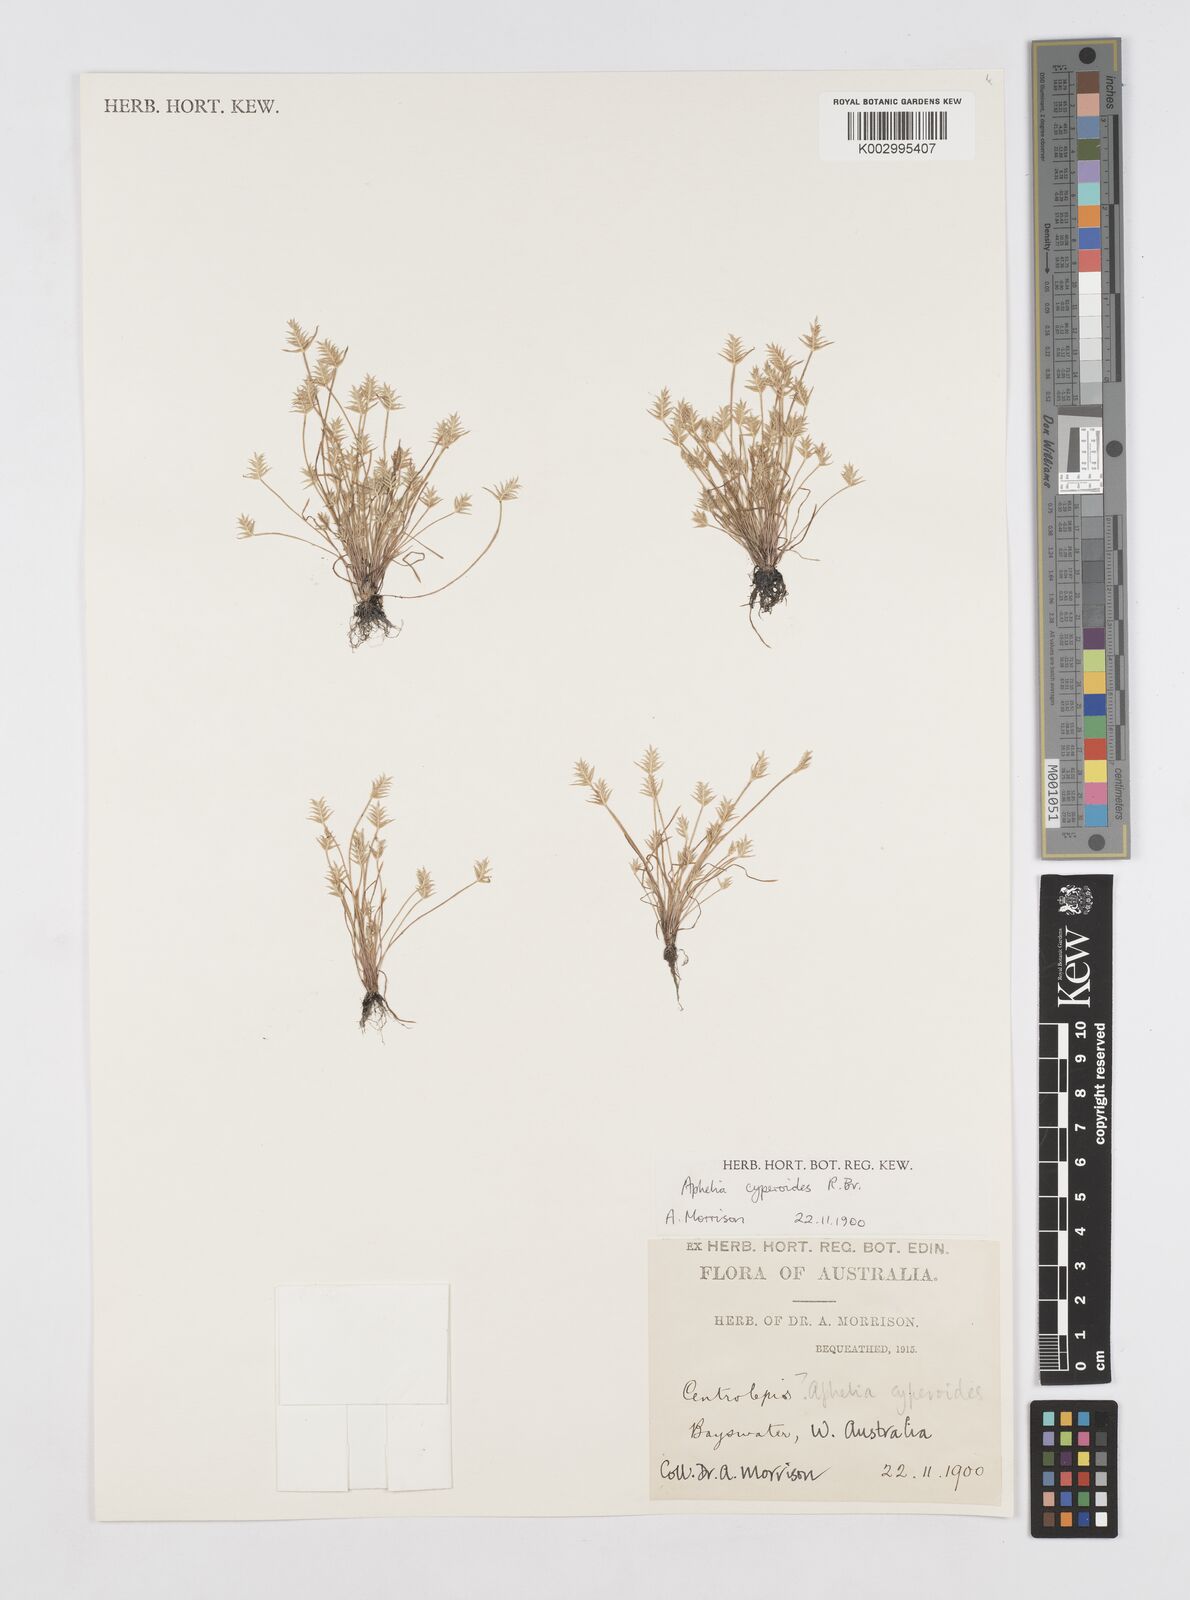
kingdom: Plantae
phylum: Tracheophyta
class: Liliopsida
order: Poales
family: Restionaceae
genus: Aphelia
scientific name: Aphelia cyperoides
